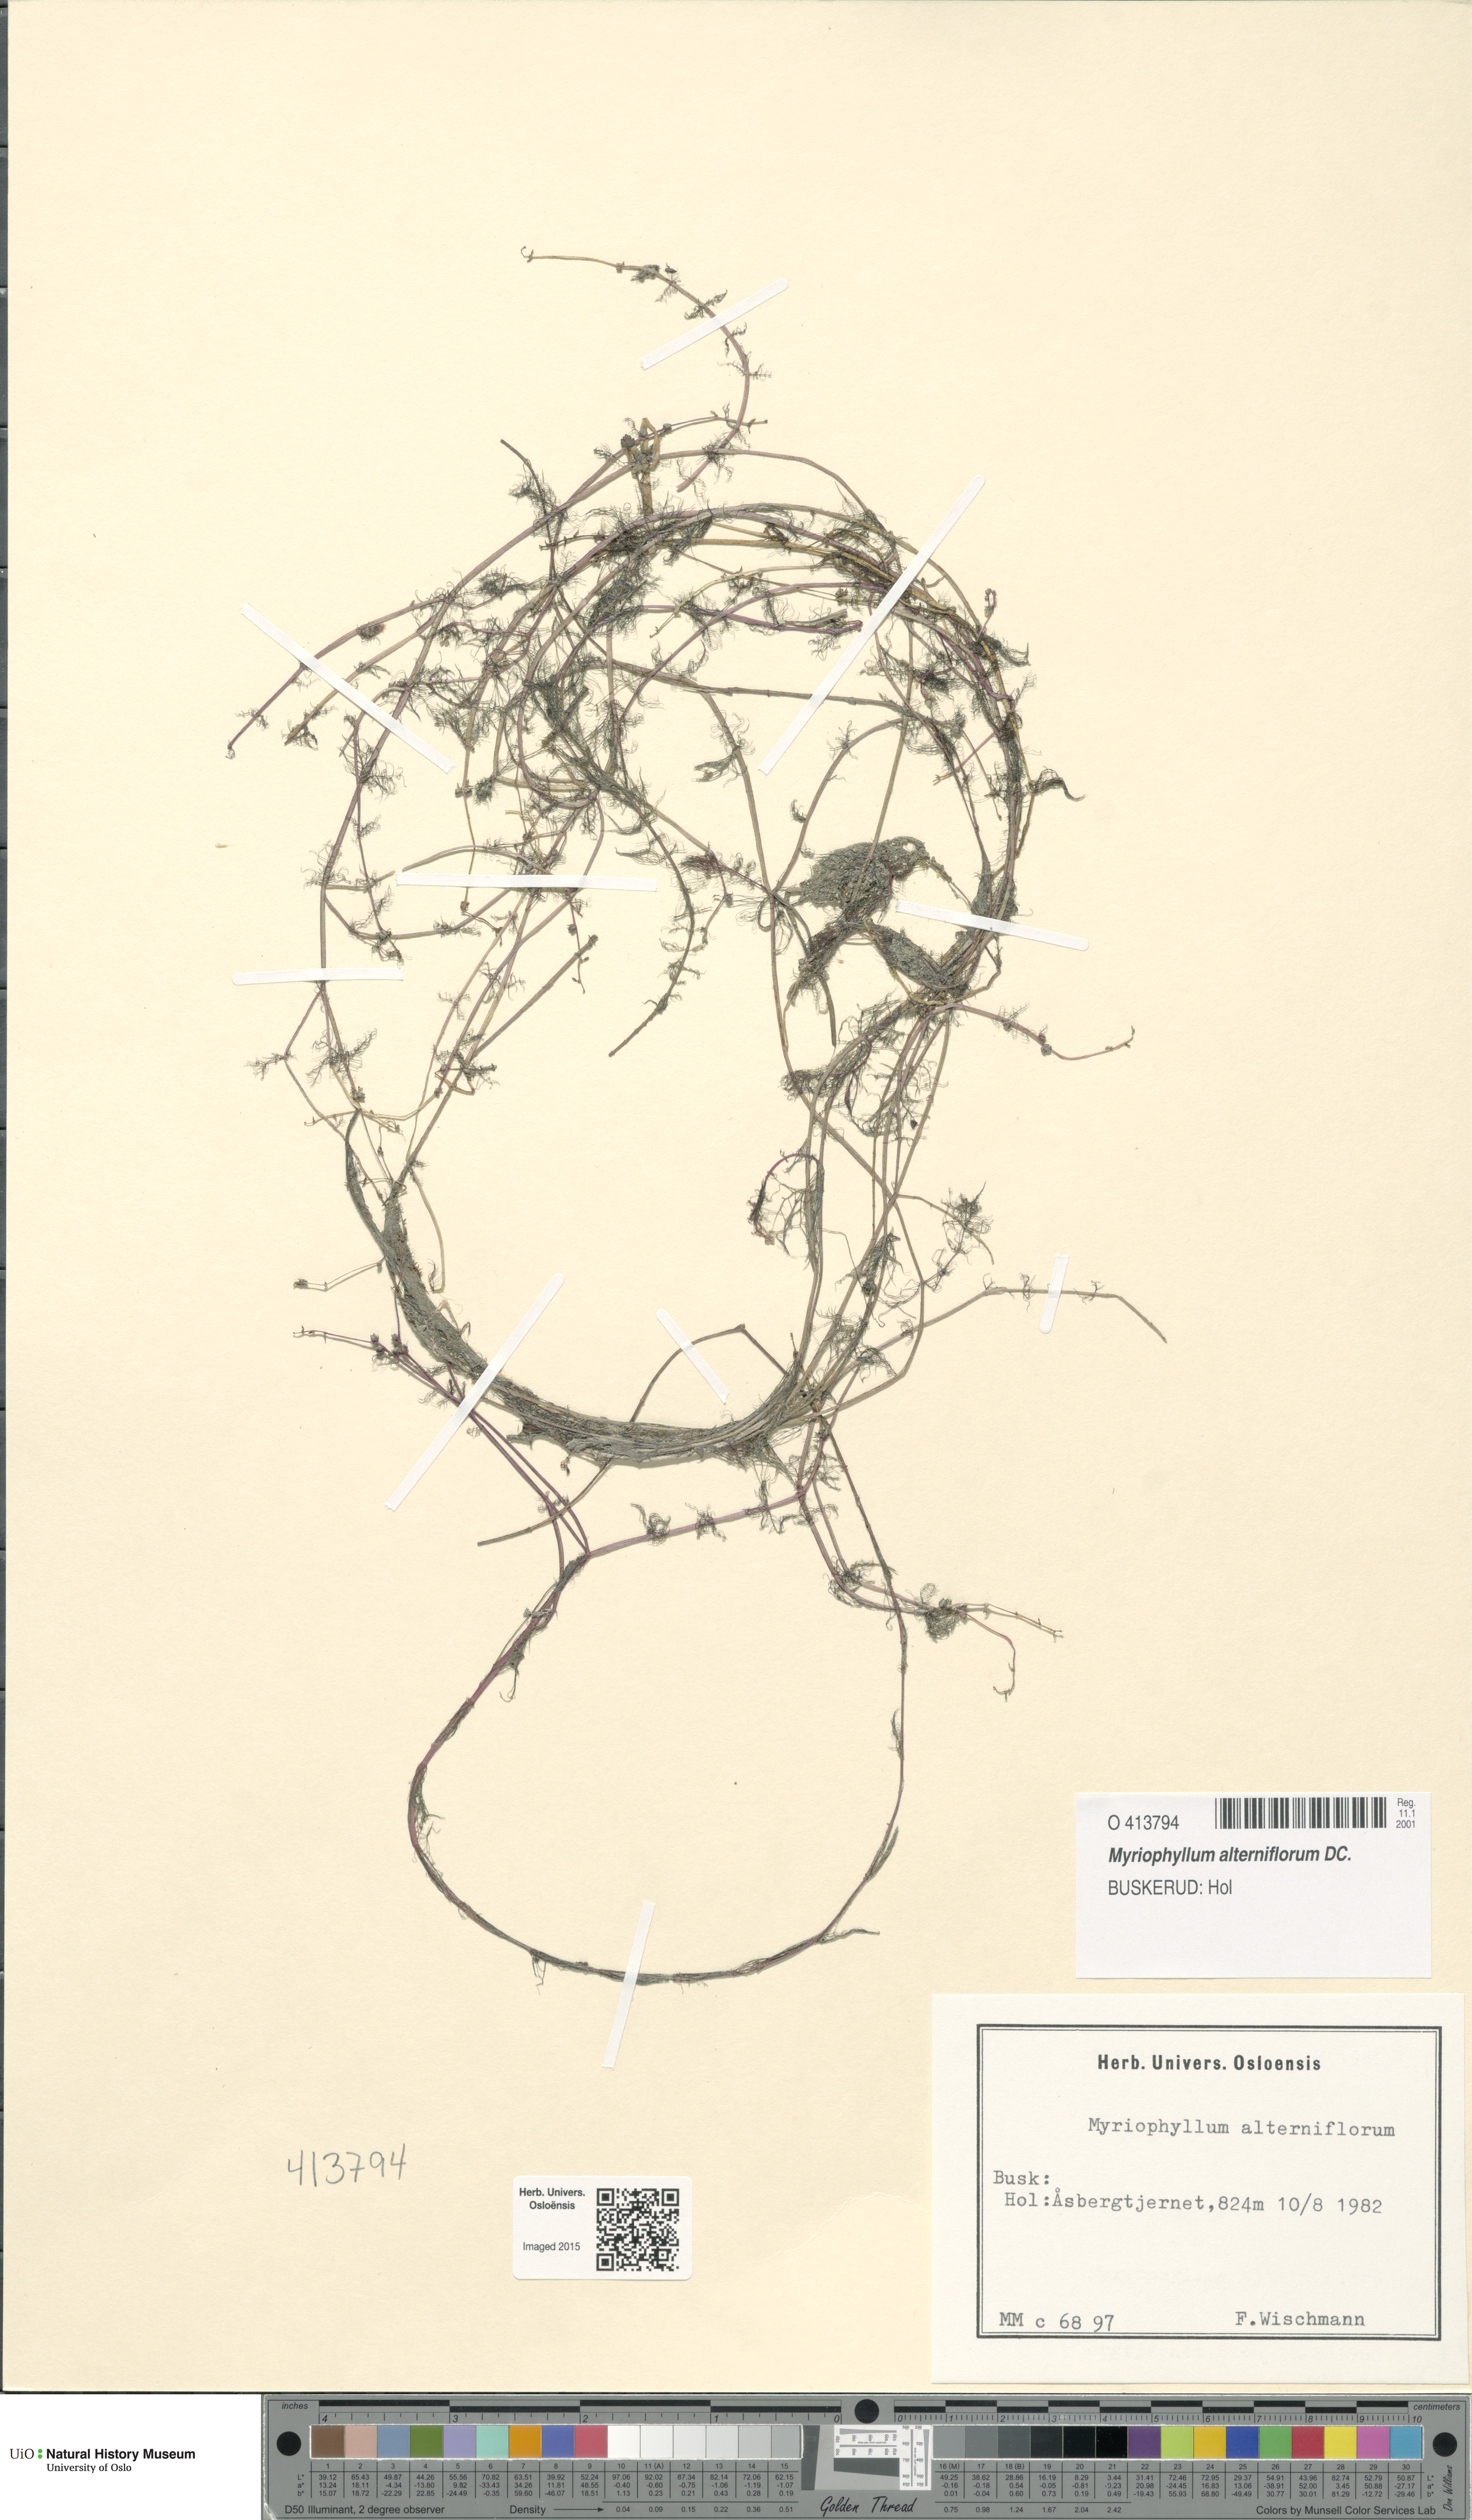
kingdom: Plantae
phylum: Tracheophyta
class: Magnoliopsida
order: Saxifragales
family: Haloragaceae
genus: Myriophyllum
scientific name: Myriophyllum alterniflorum
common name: Alternate water-milfoil
